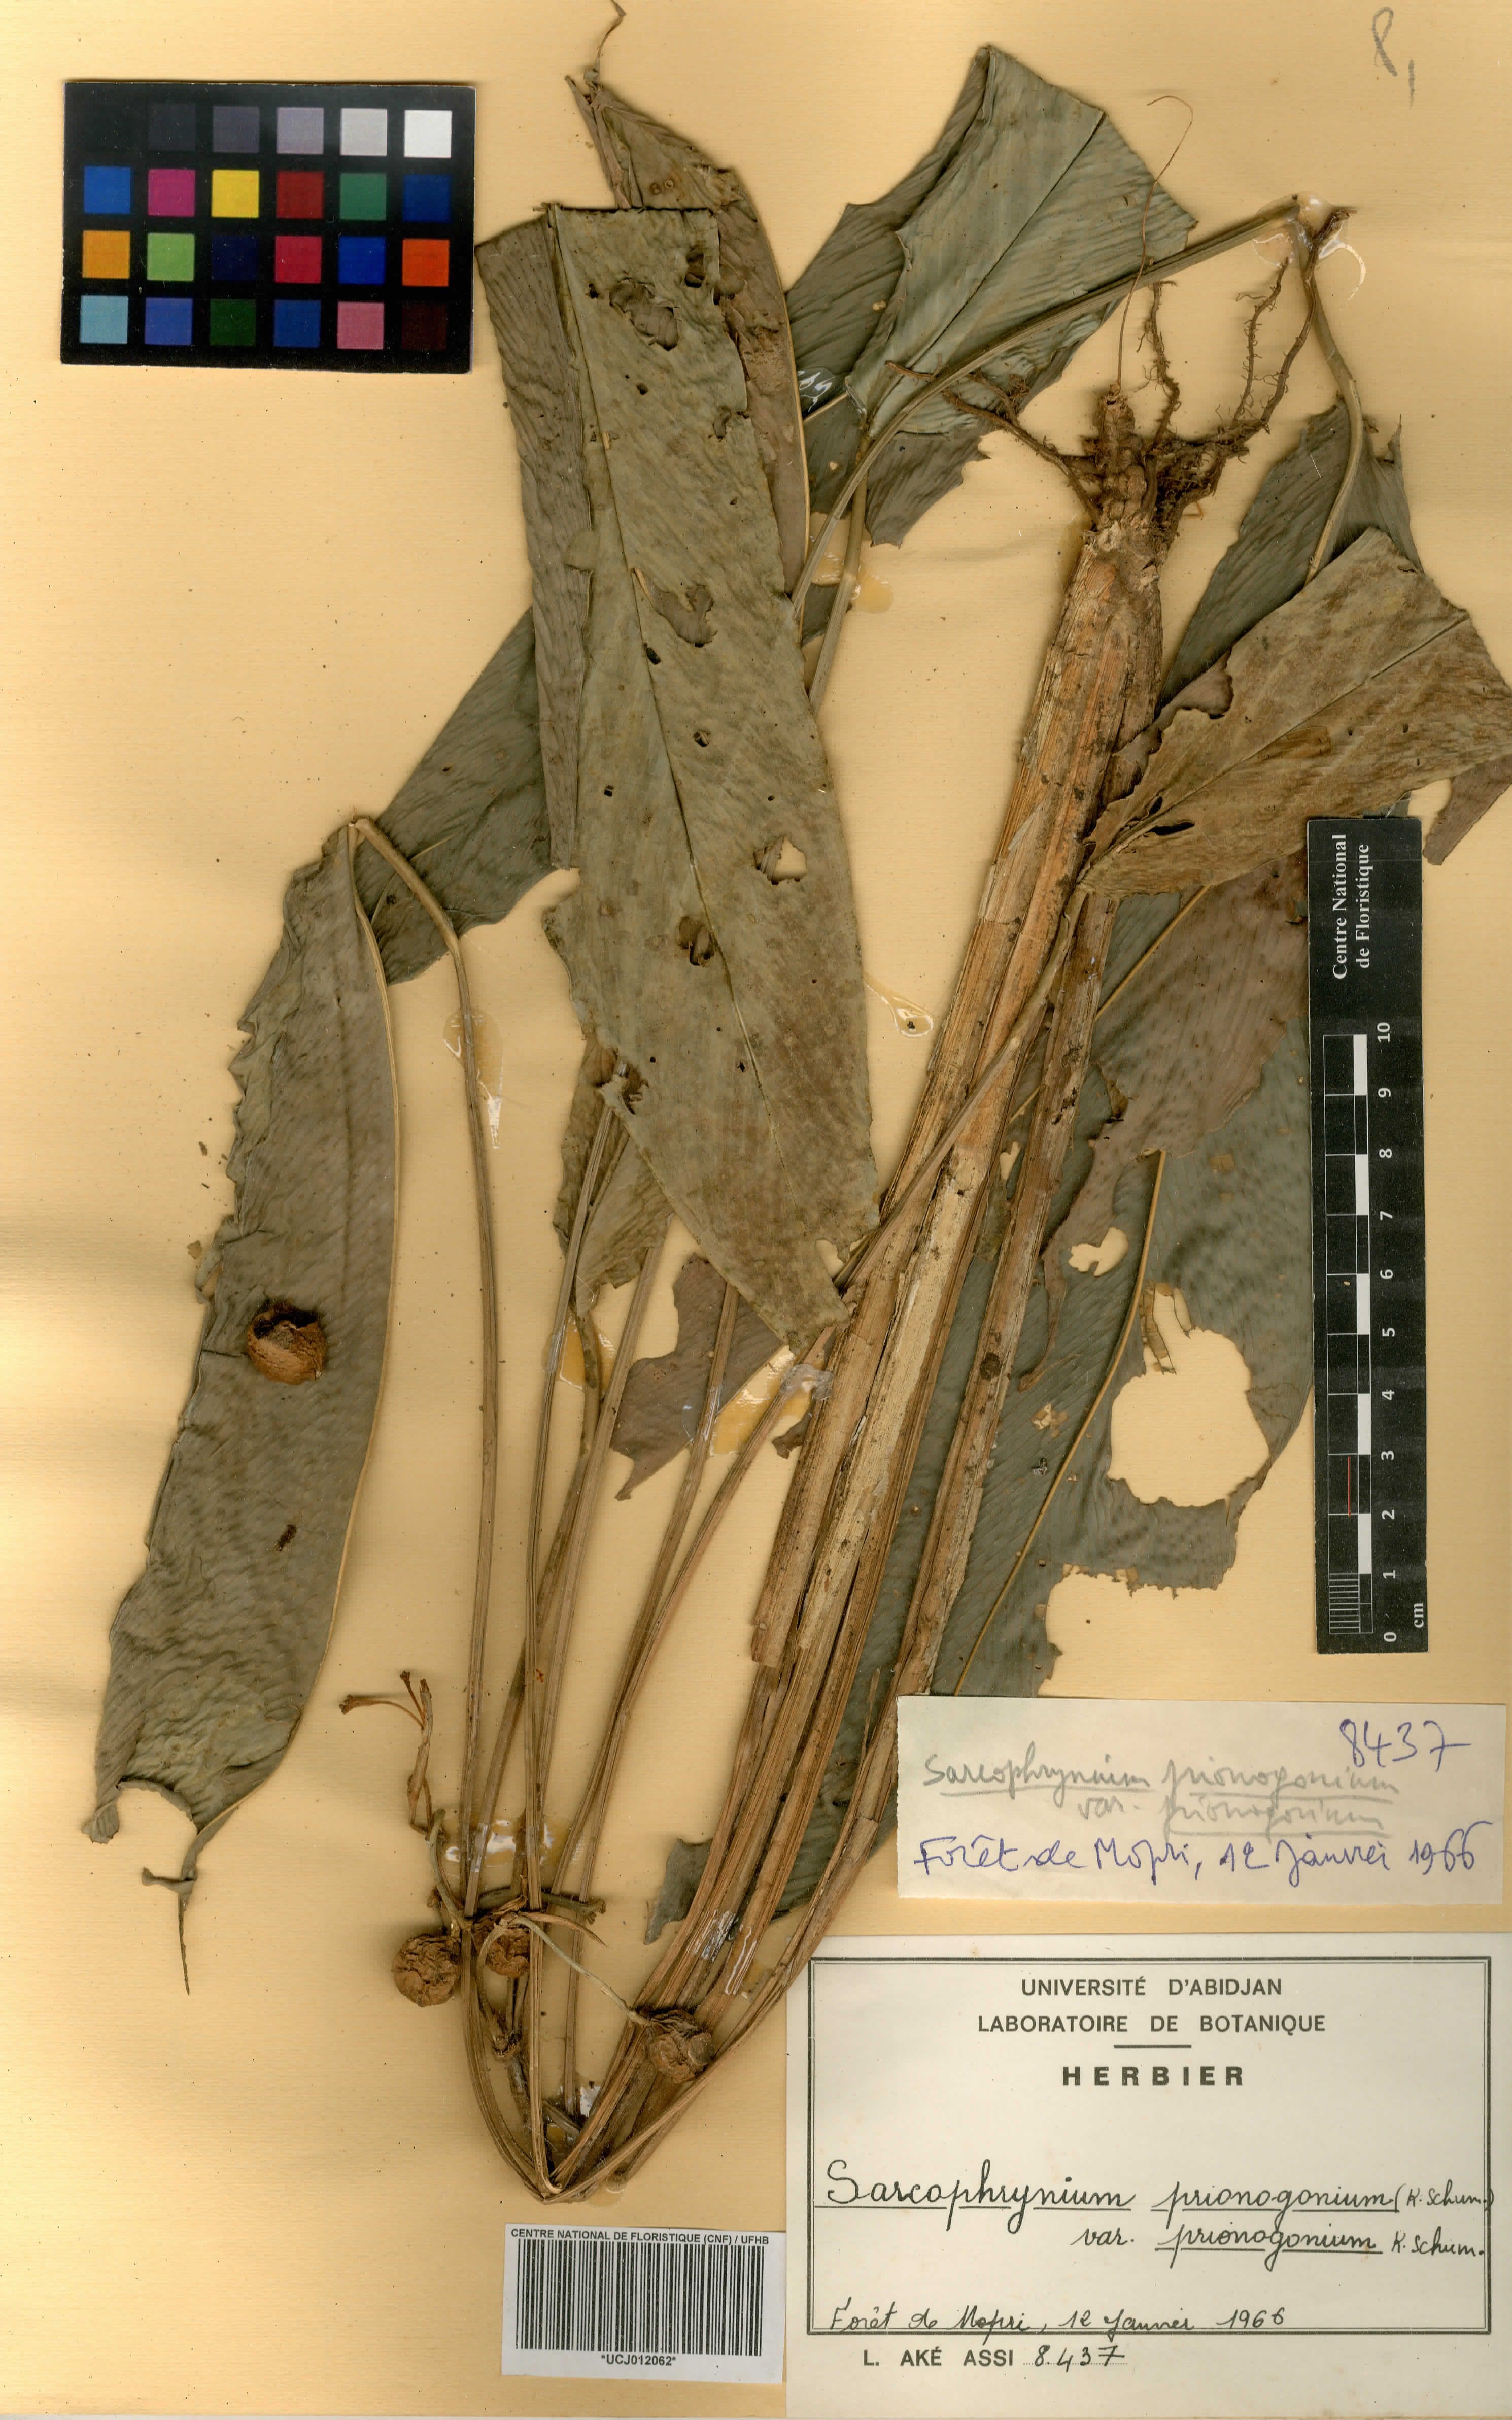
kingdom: Plantae
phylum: Tracheophyta
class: Liliopsida
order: Zingiberales
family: Marantaceae
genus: Sarcophrynium
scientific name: Sarcophrynium prionogonium
